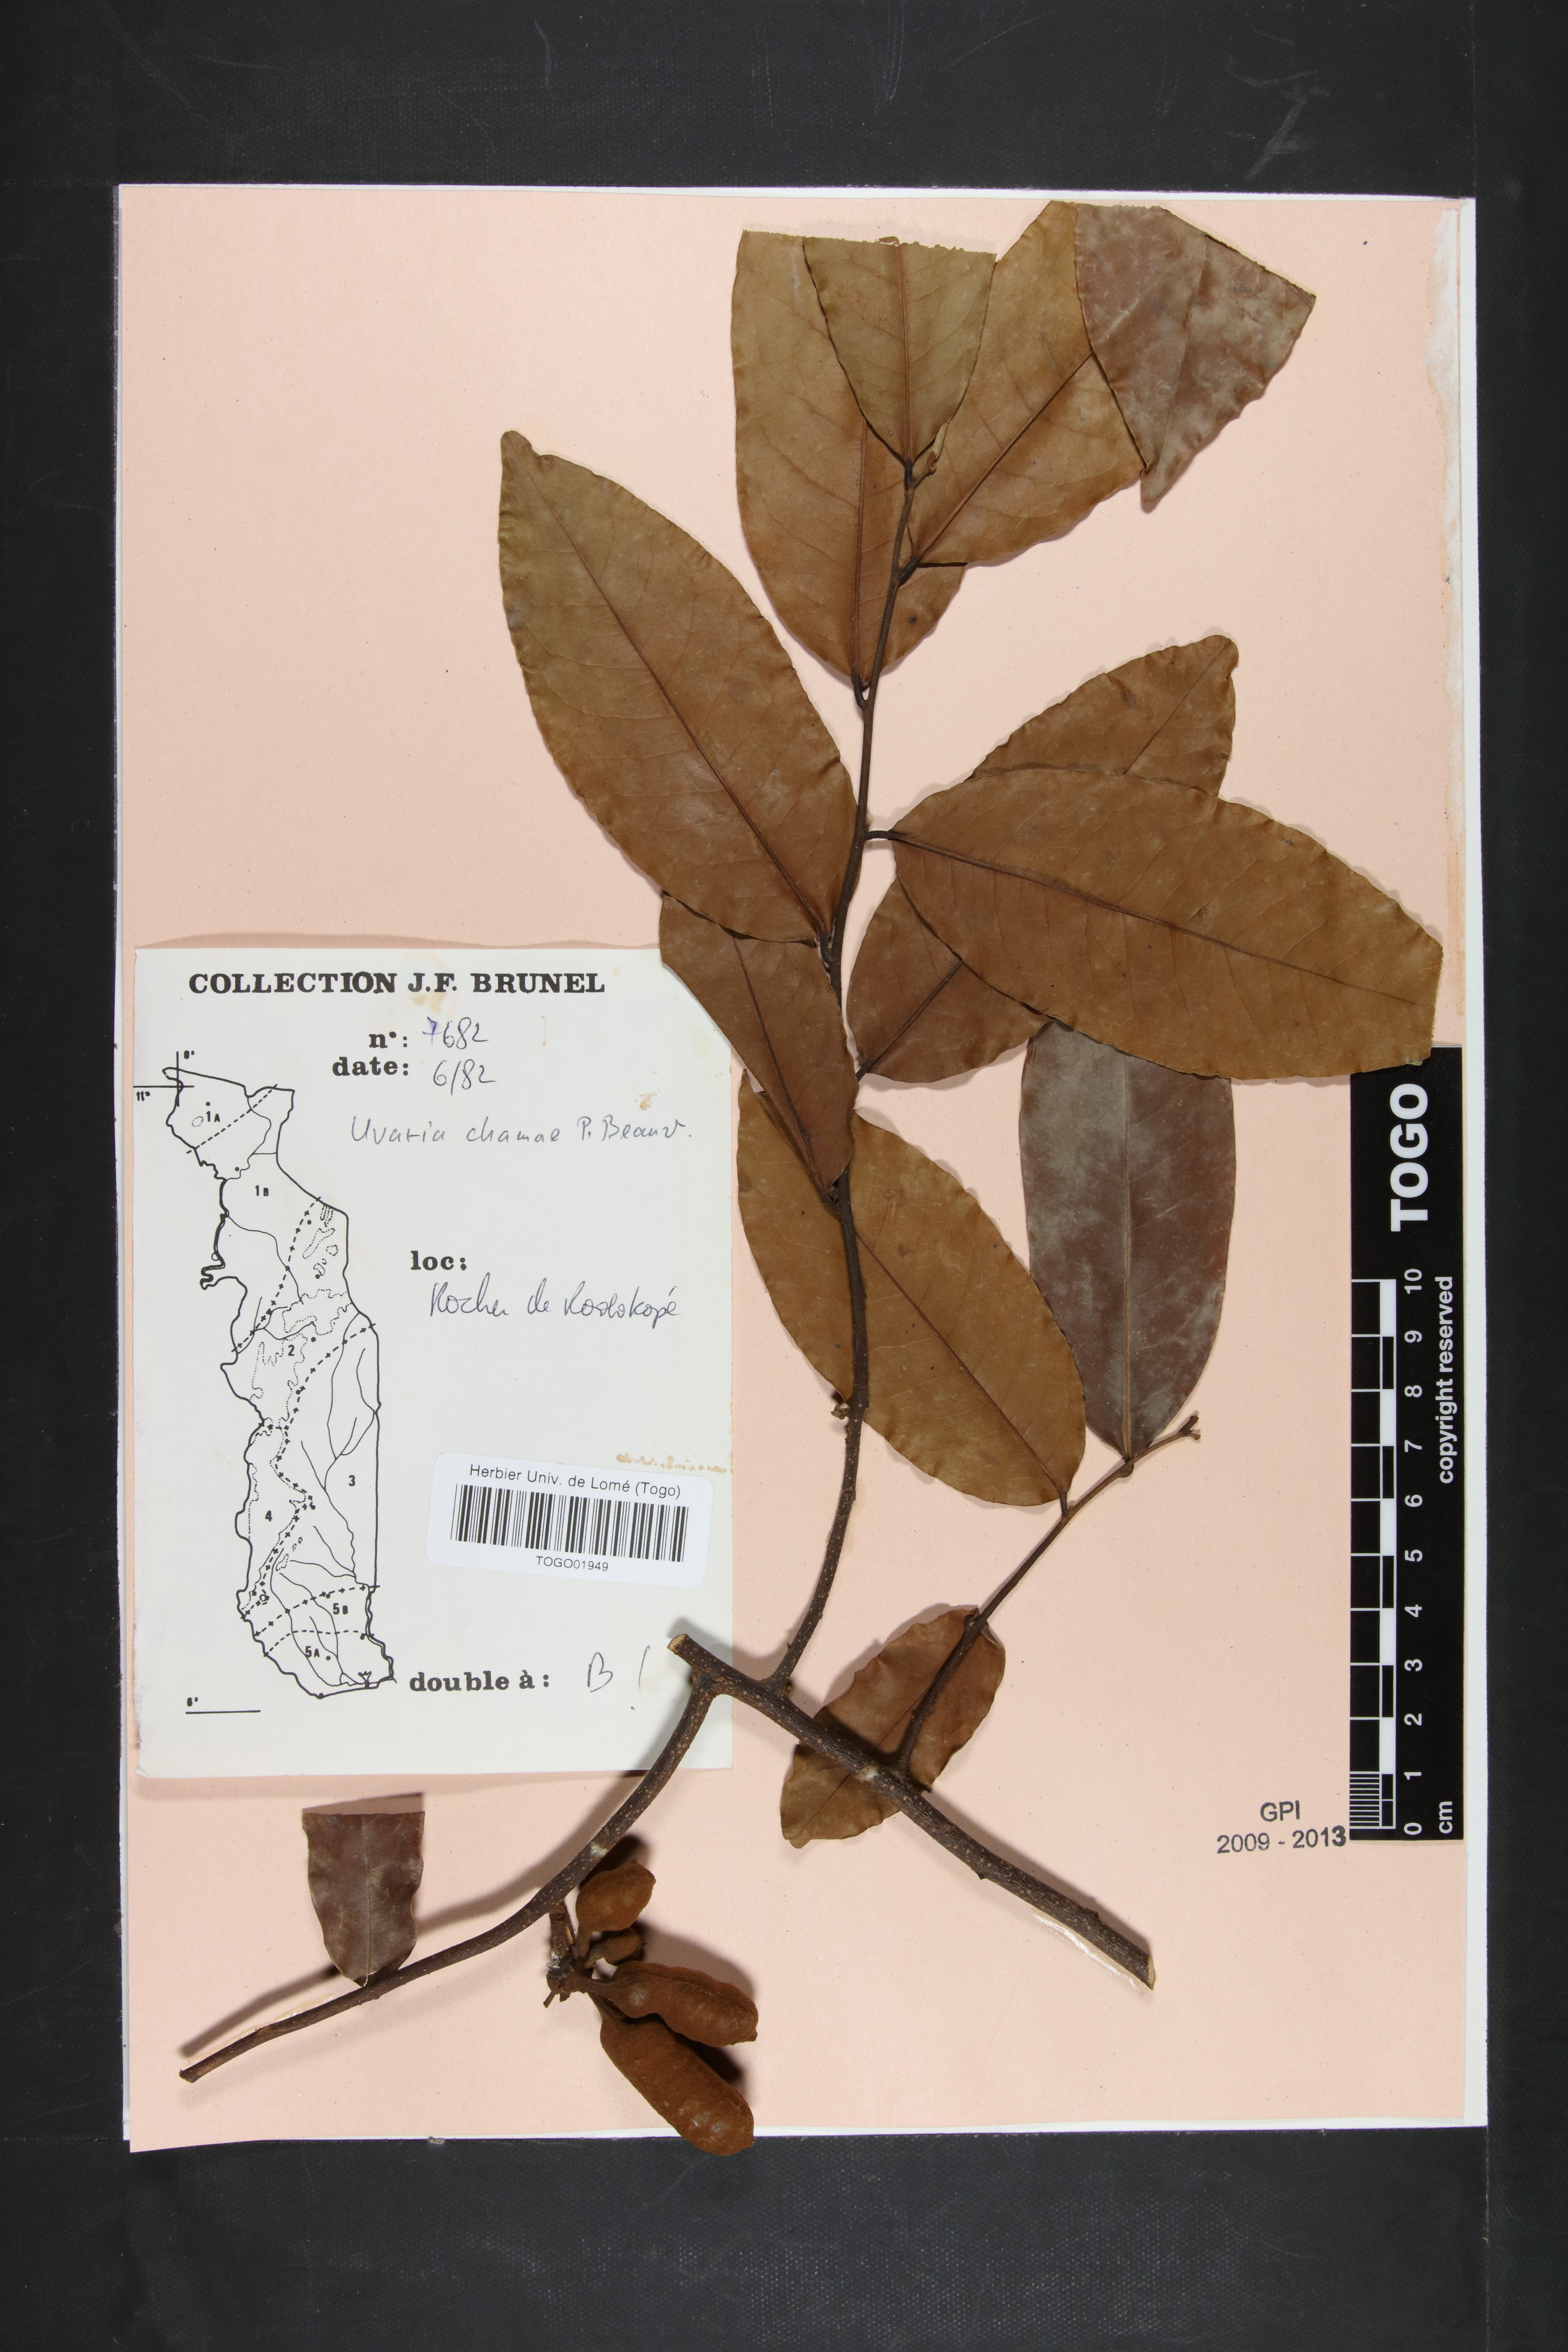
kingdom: Plantae
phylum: Tracheophyta
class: Magnoliopsida
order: Magnoliales
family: Annonaceae
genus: Uvaria
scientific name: Uvaria chamae
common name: Finger-root
